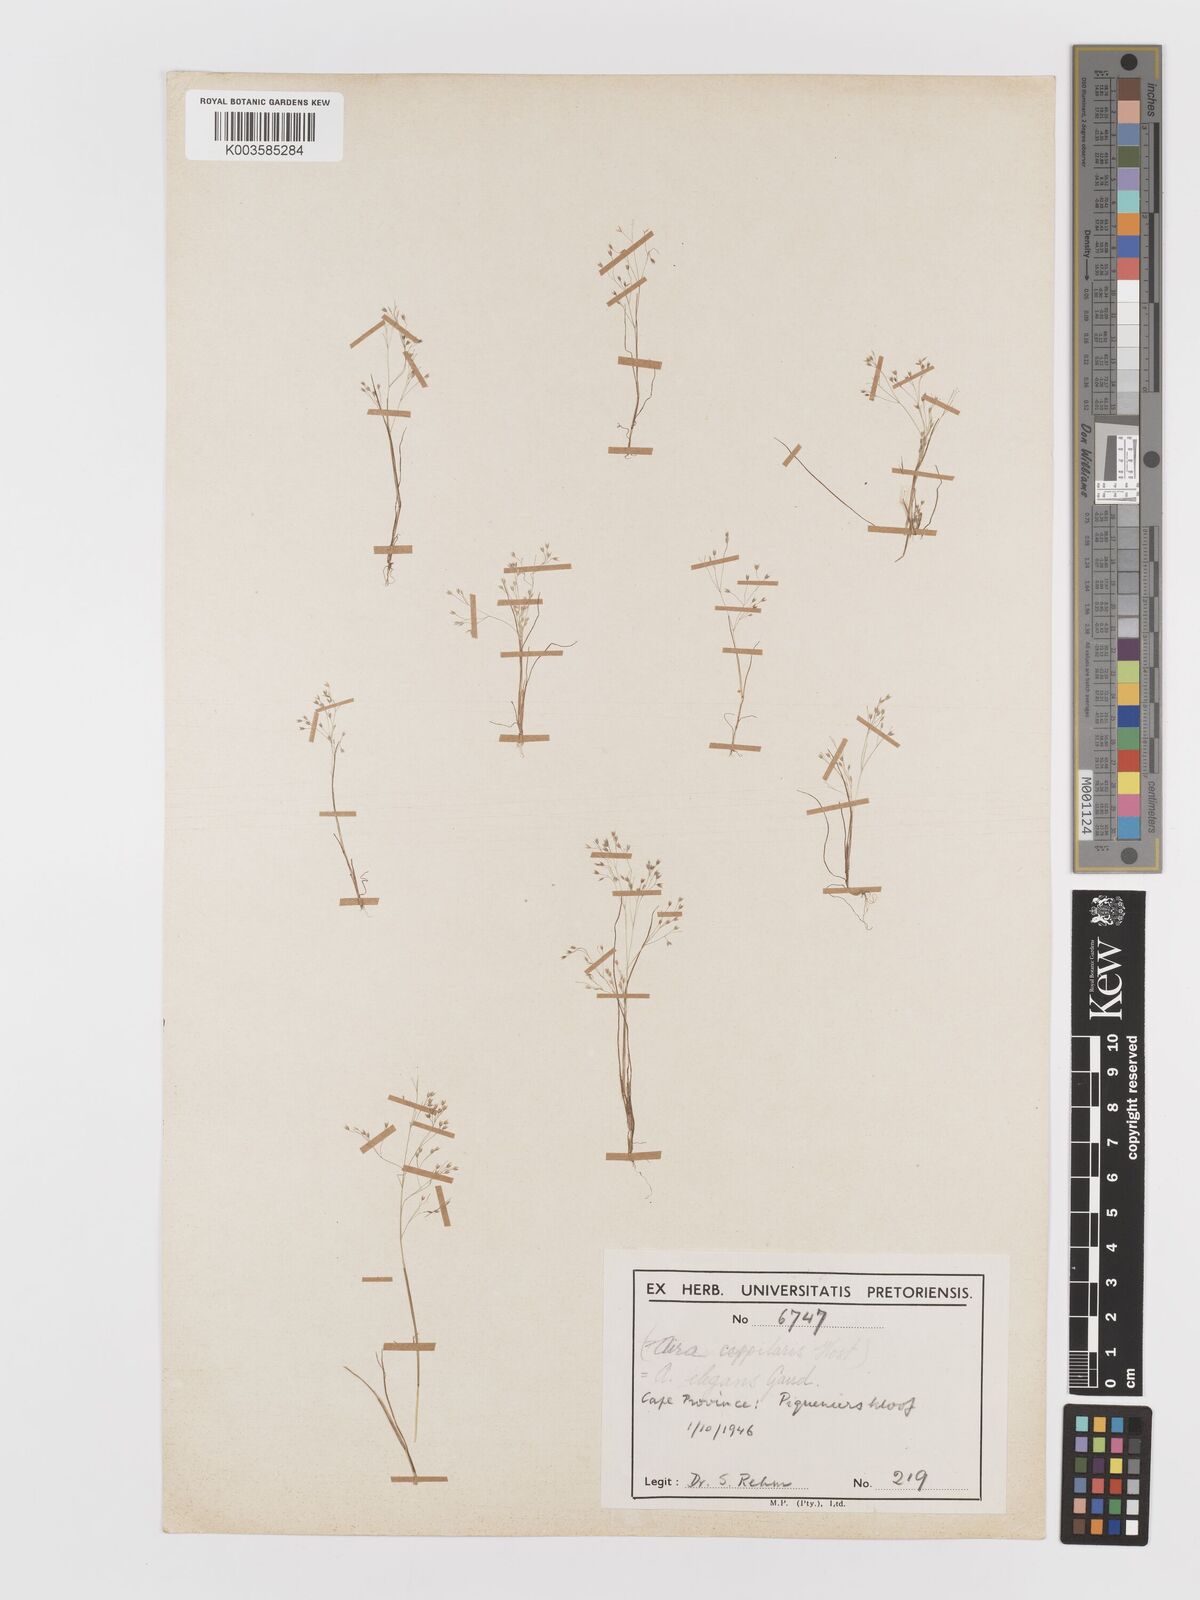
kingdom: Plantae
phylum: Tracheophyta
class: Liliopsida
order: Poales
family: Poaceae
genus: Aira
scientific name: Aira cupaniana
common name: Silver hairgrass
